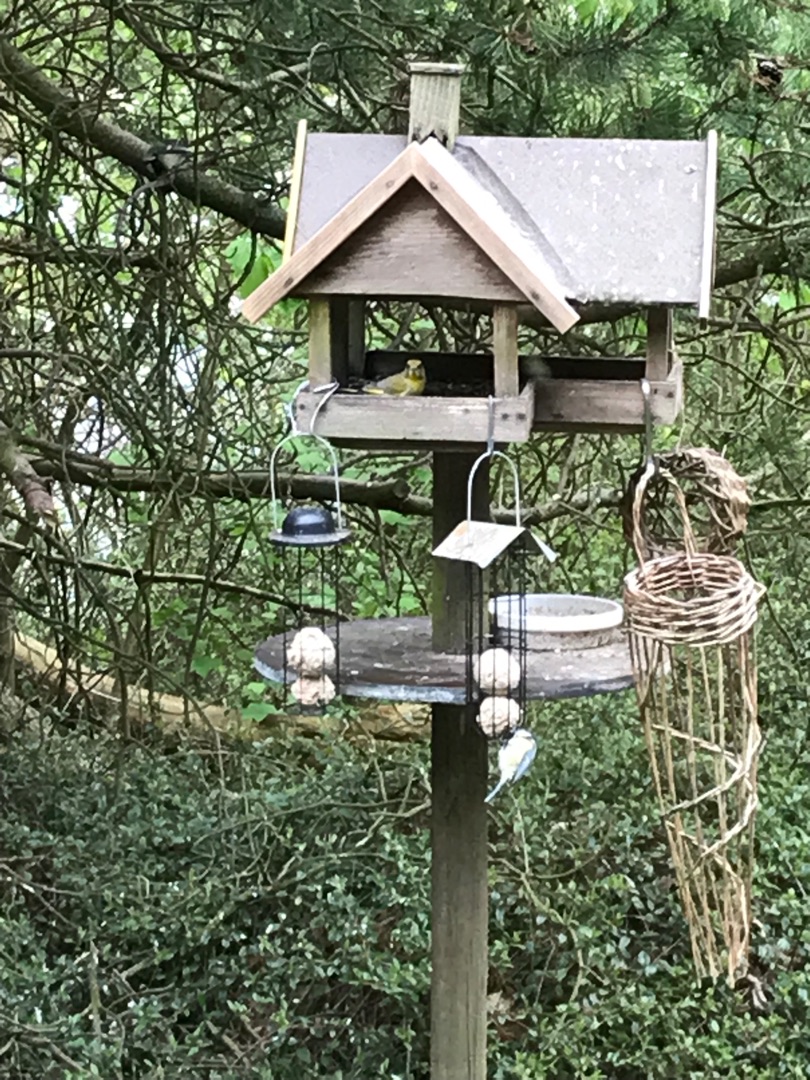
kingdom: Plantae
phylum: Tracheophyta
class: Liliopsida
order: Poales
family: Poaceae
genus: Chloris
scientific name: Chloris chloris
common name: Grønirisk
